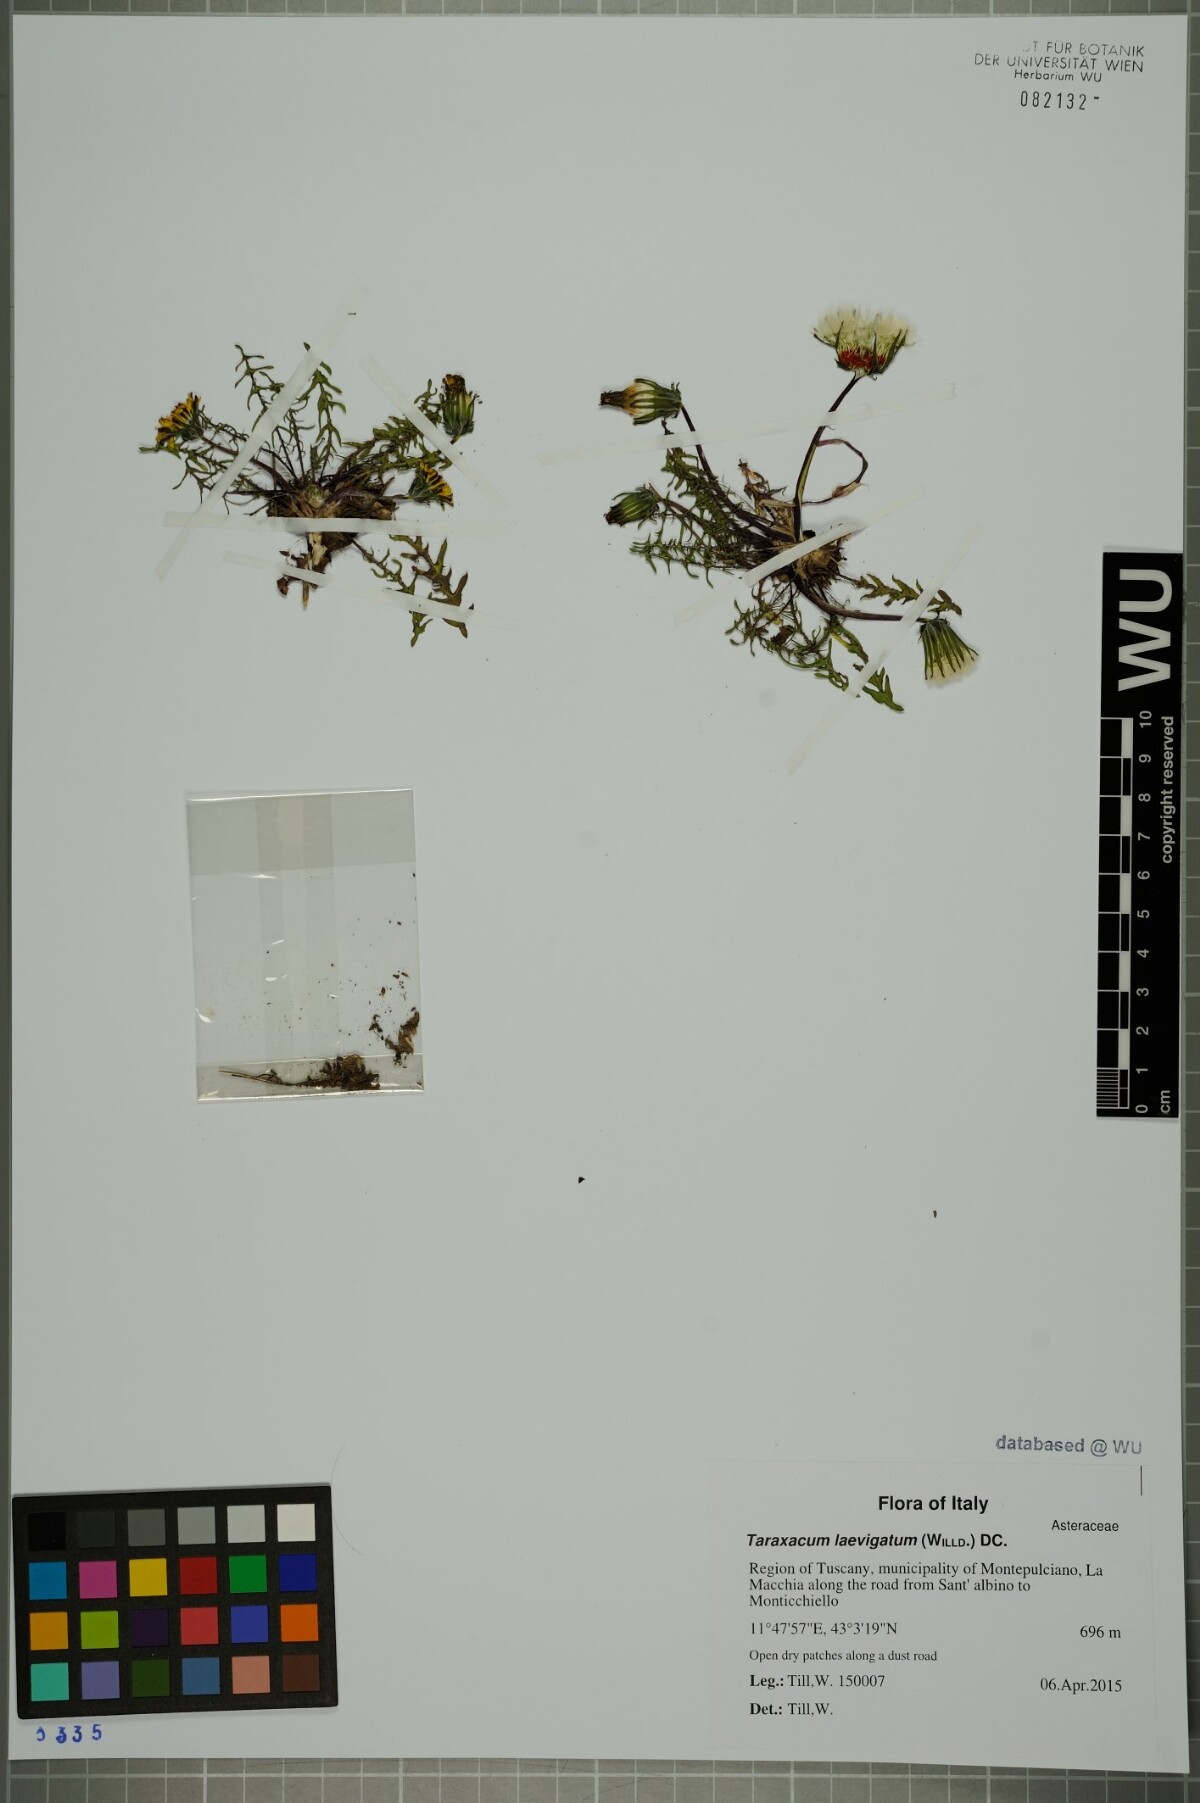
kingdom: Plantae
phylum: Tracheophyta
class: Magnoliopsida
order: Asterales
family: Asteraceae
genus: Taraxacum
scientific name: Taraxacum erythrospermum
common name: Rock dandelion
